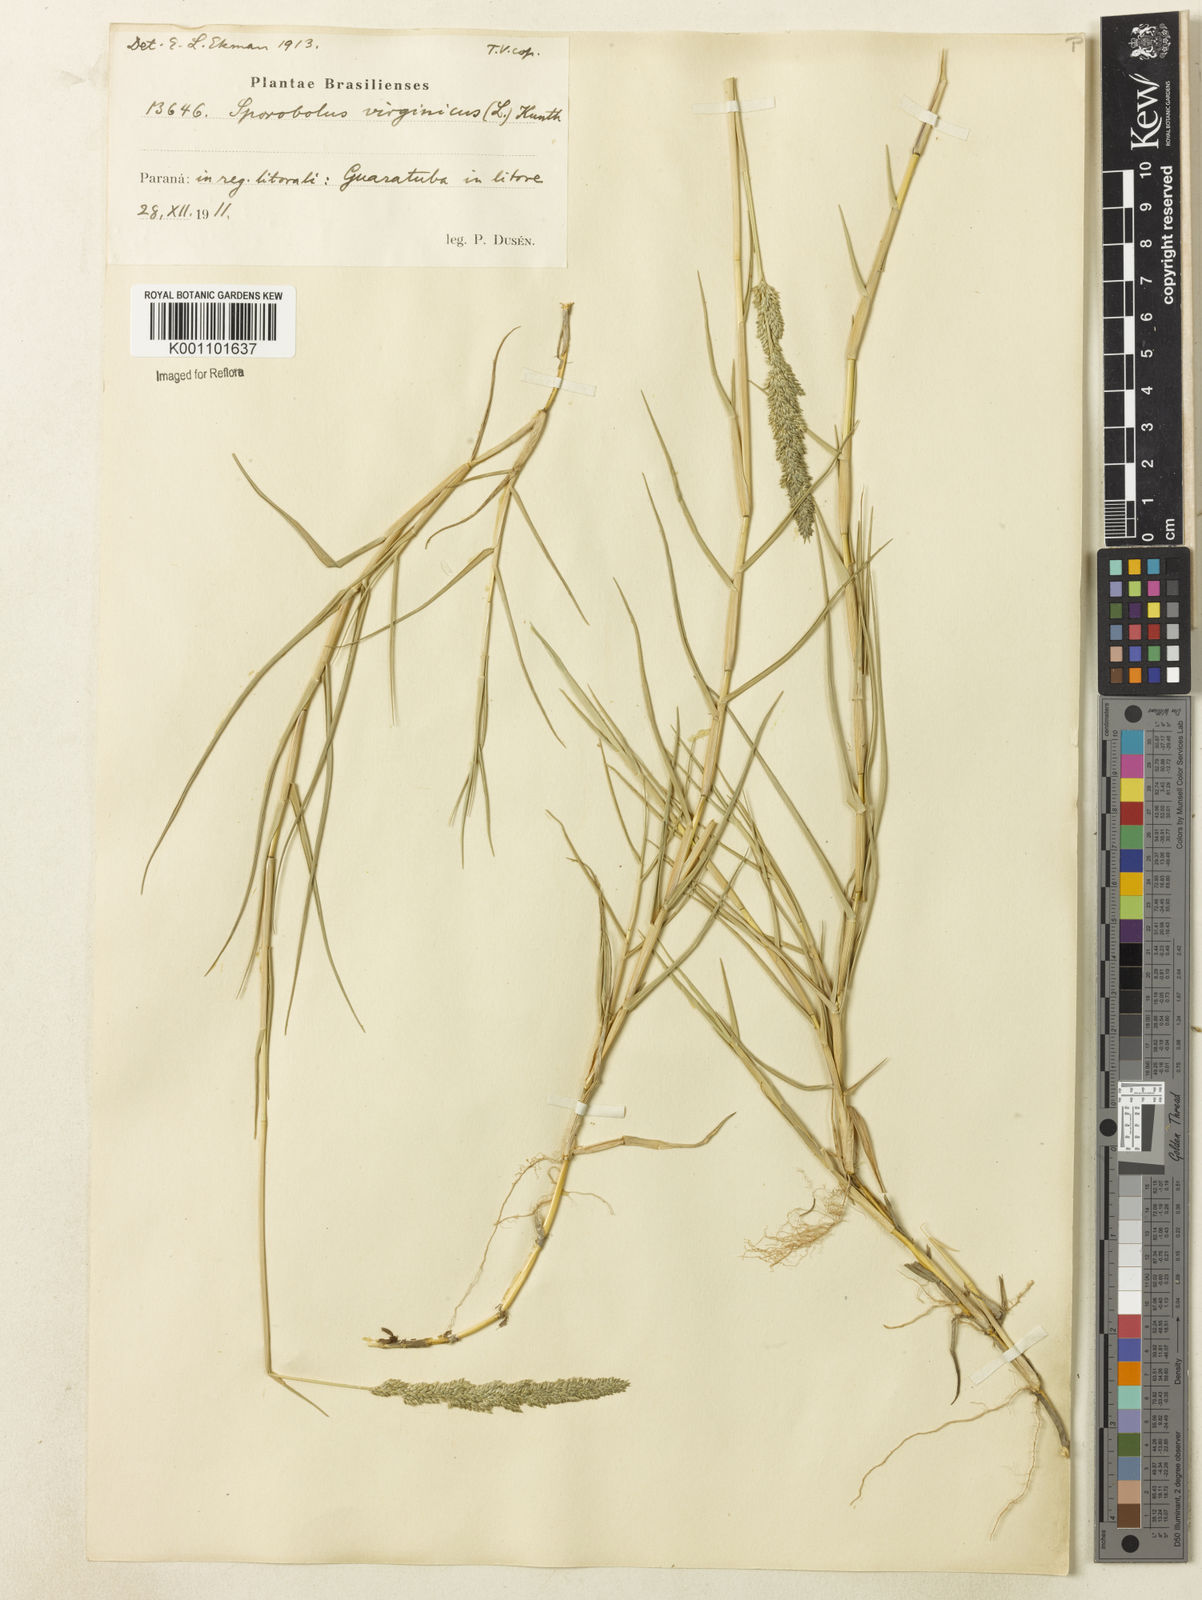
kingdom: Plantae
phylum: Tracheophyta
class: Liliopsida
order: Poales
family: Poaceae
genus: Sporobolus
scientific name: Sporobolus virginicus
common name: Beach dropseed
